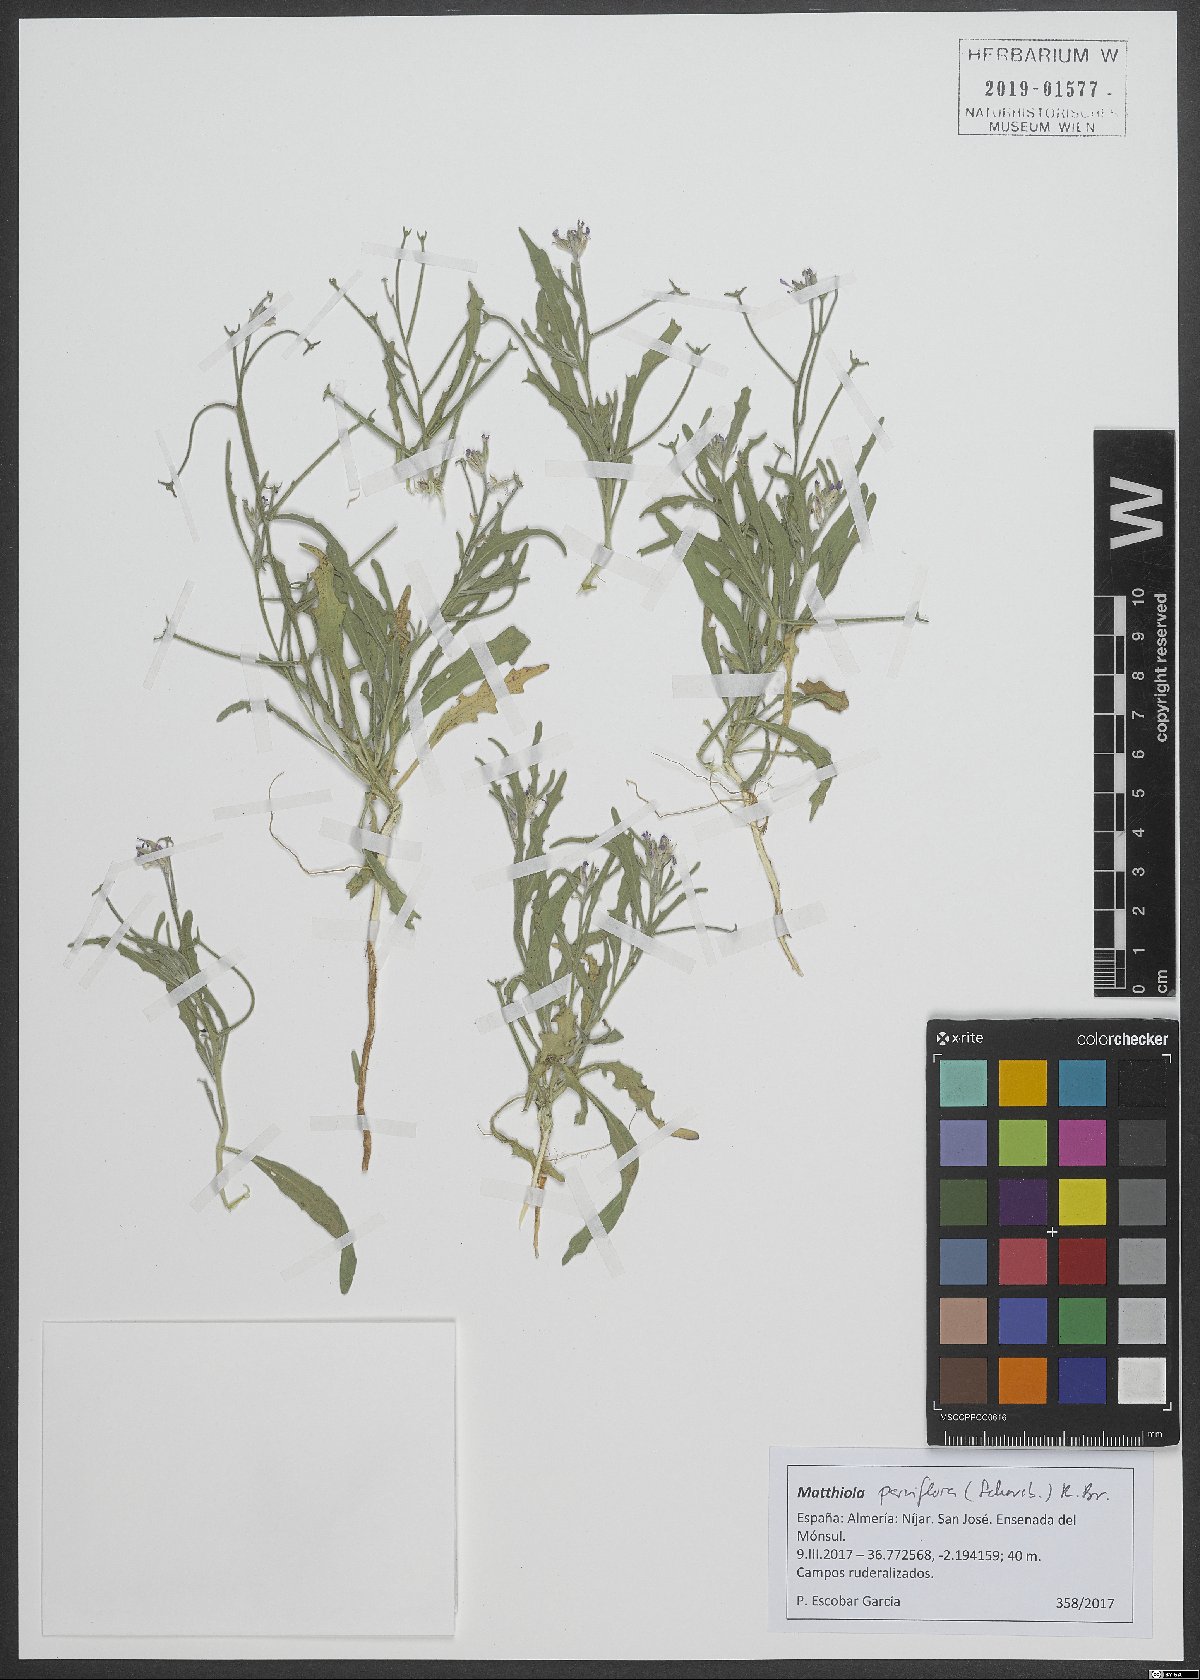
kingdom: Plantae
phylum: Tracheophyta
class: Magnoliopsida
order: Brassicales
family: Brassicaceae
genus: Matthiola
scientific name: Matthiola parviflora
